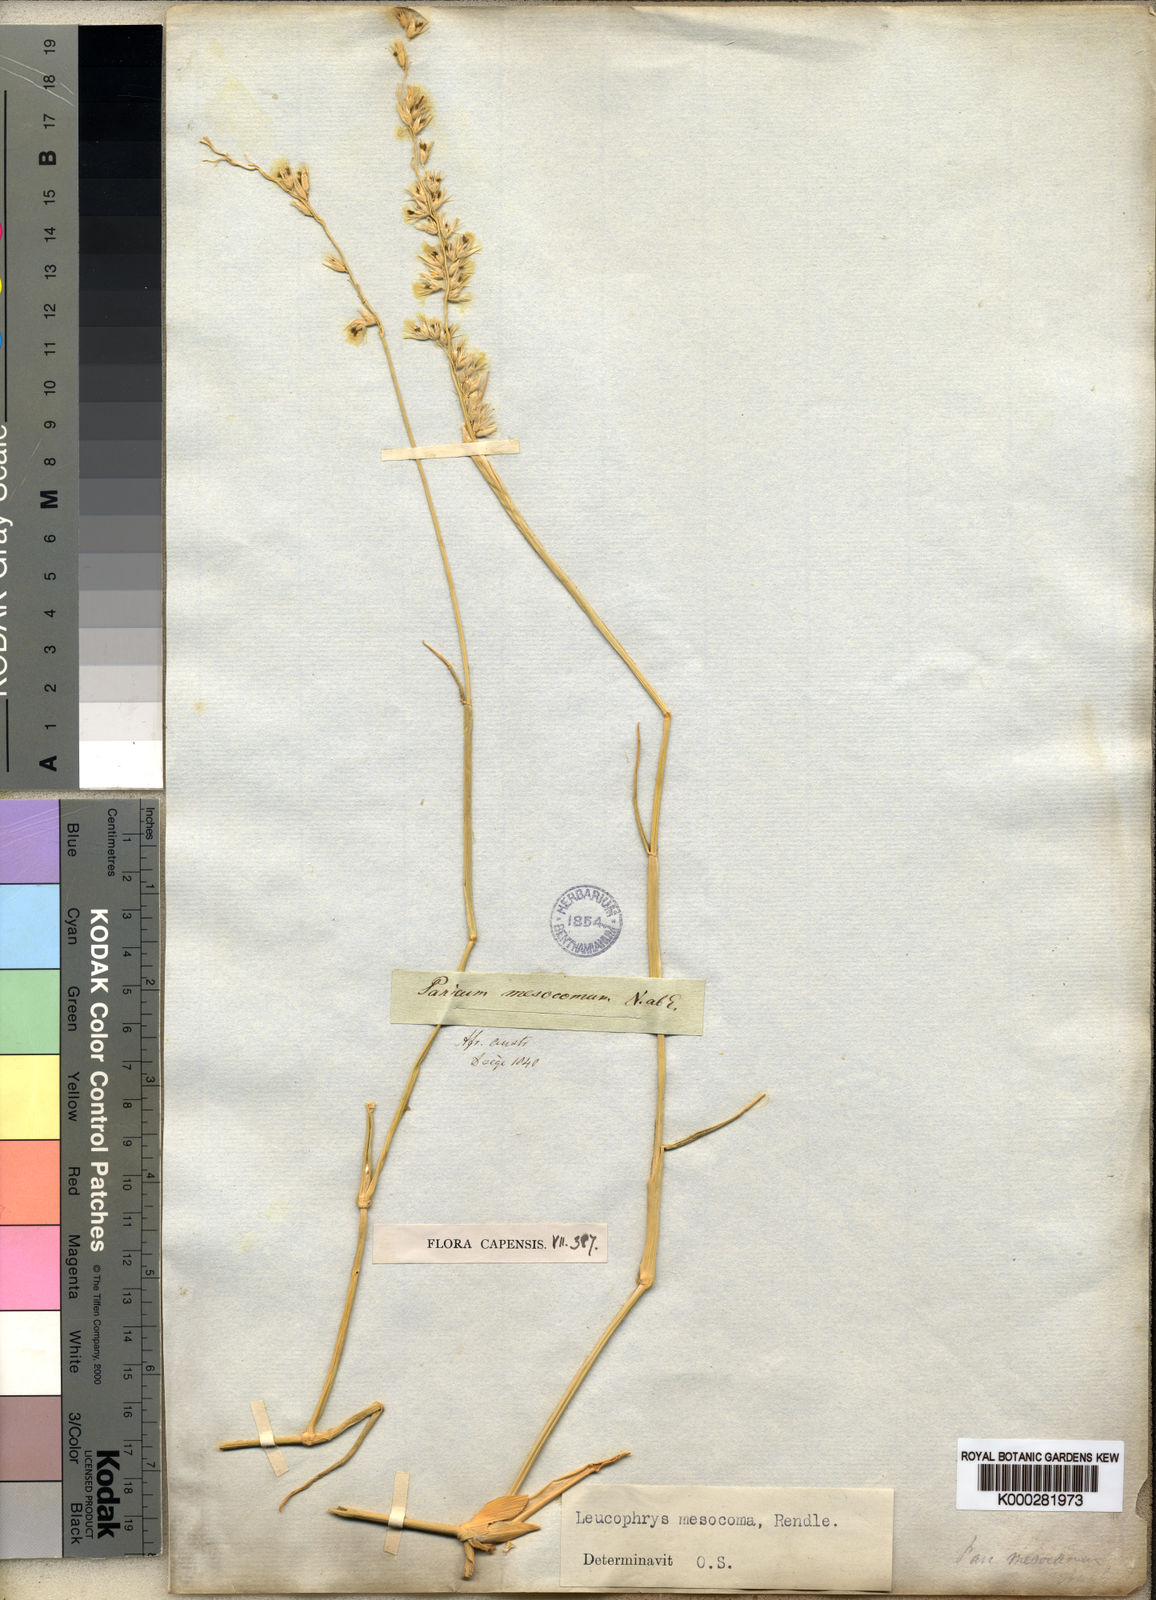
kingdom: Plantae
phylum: Tracheophyta
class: Liliopsida
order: Poales
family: Poaceae
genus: Urochloa
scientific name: Urochloa Brachiaria mesocoma
